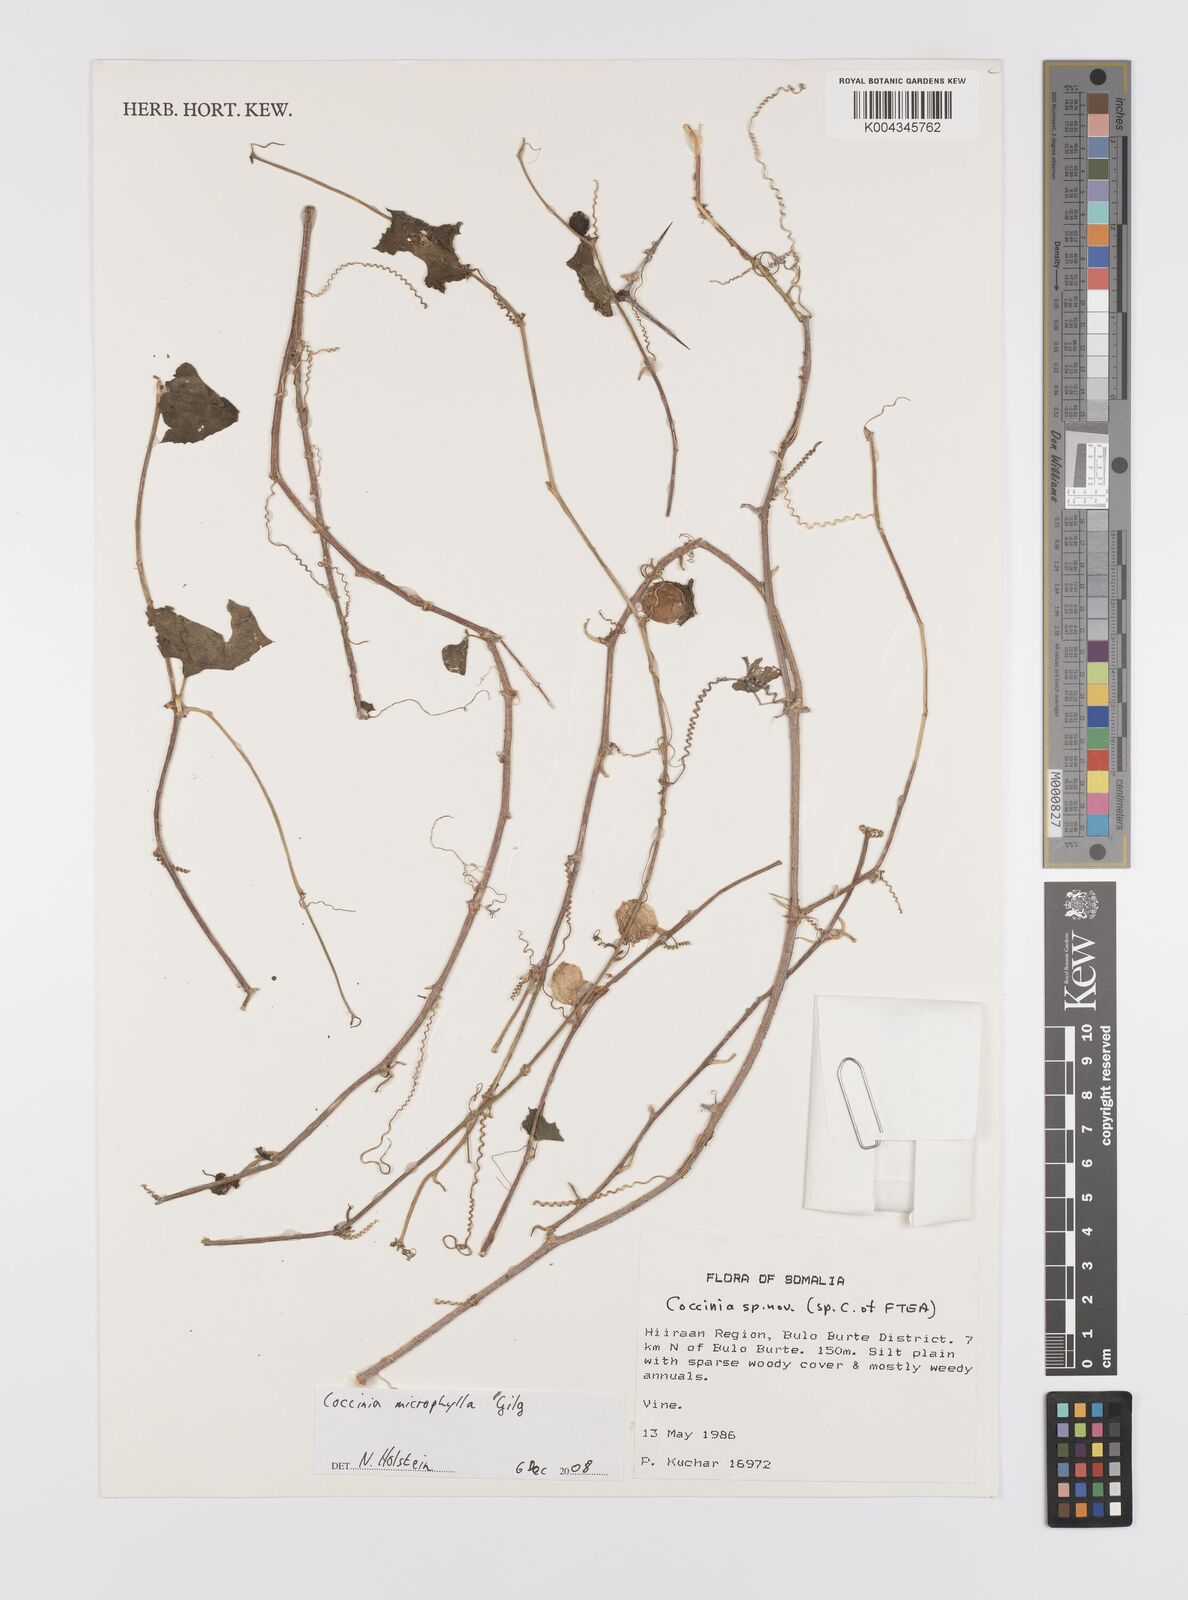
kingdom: Plantae
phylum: Tracheophyta
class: Magnoliopsida
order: Cucurbitales
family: Cucurbitaceae
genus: Coccinia
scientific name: Coccinia microphylla
